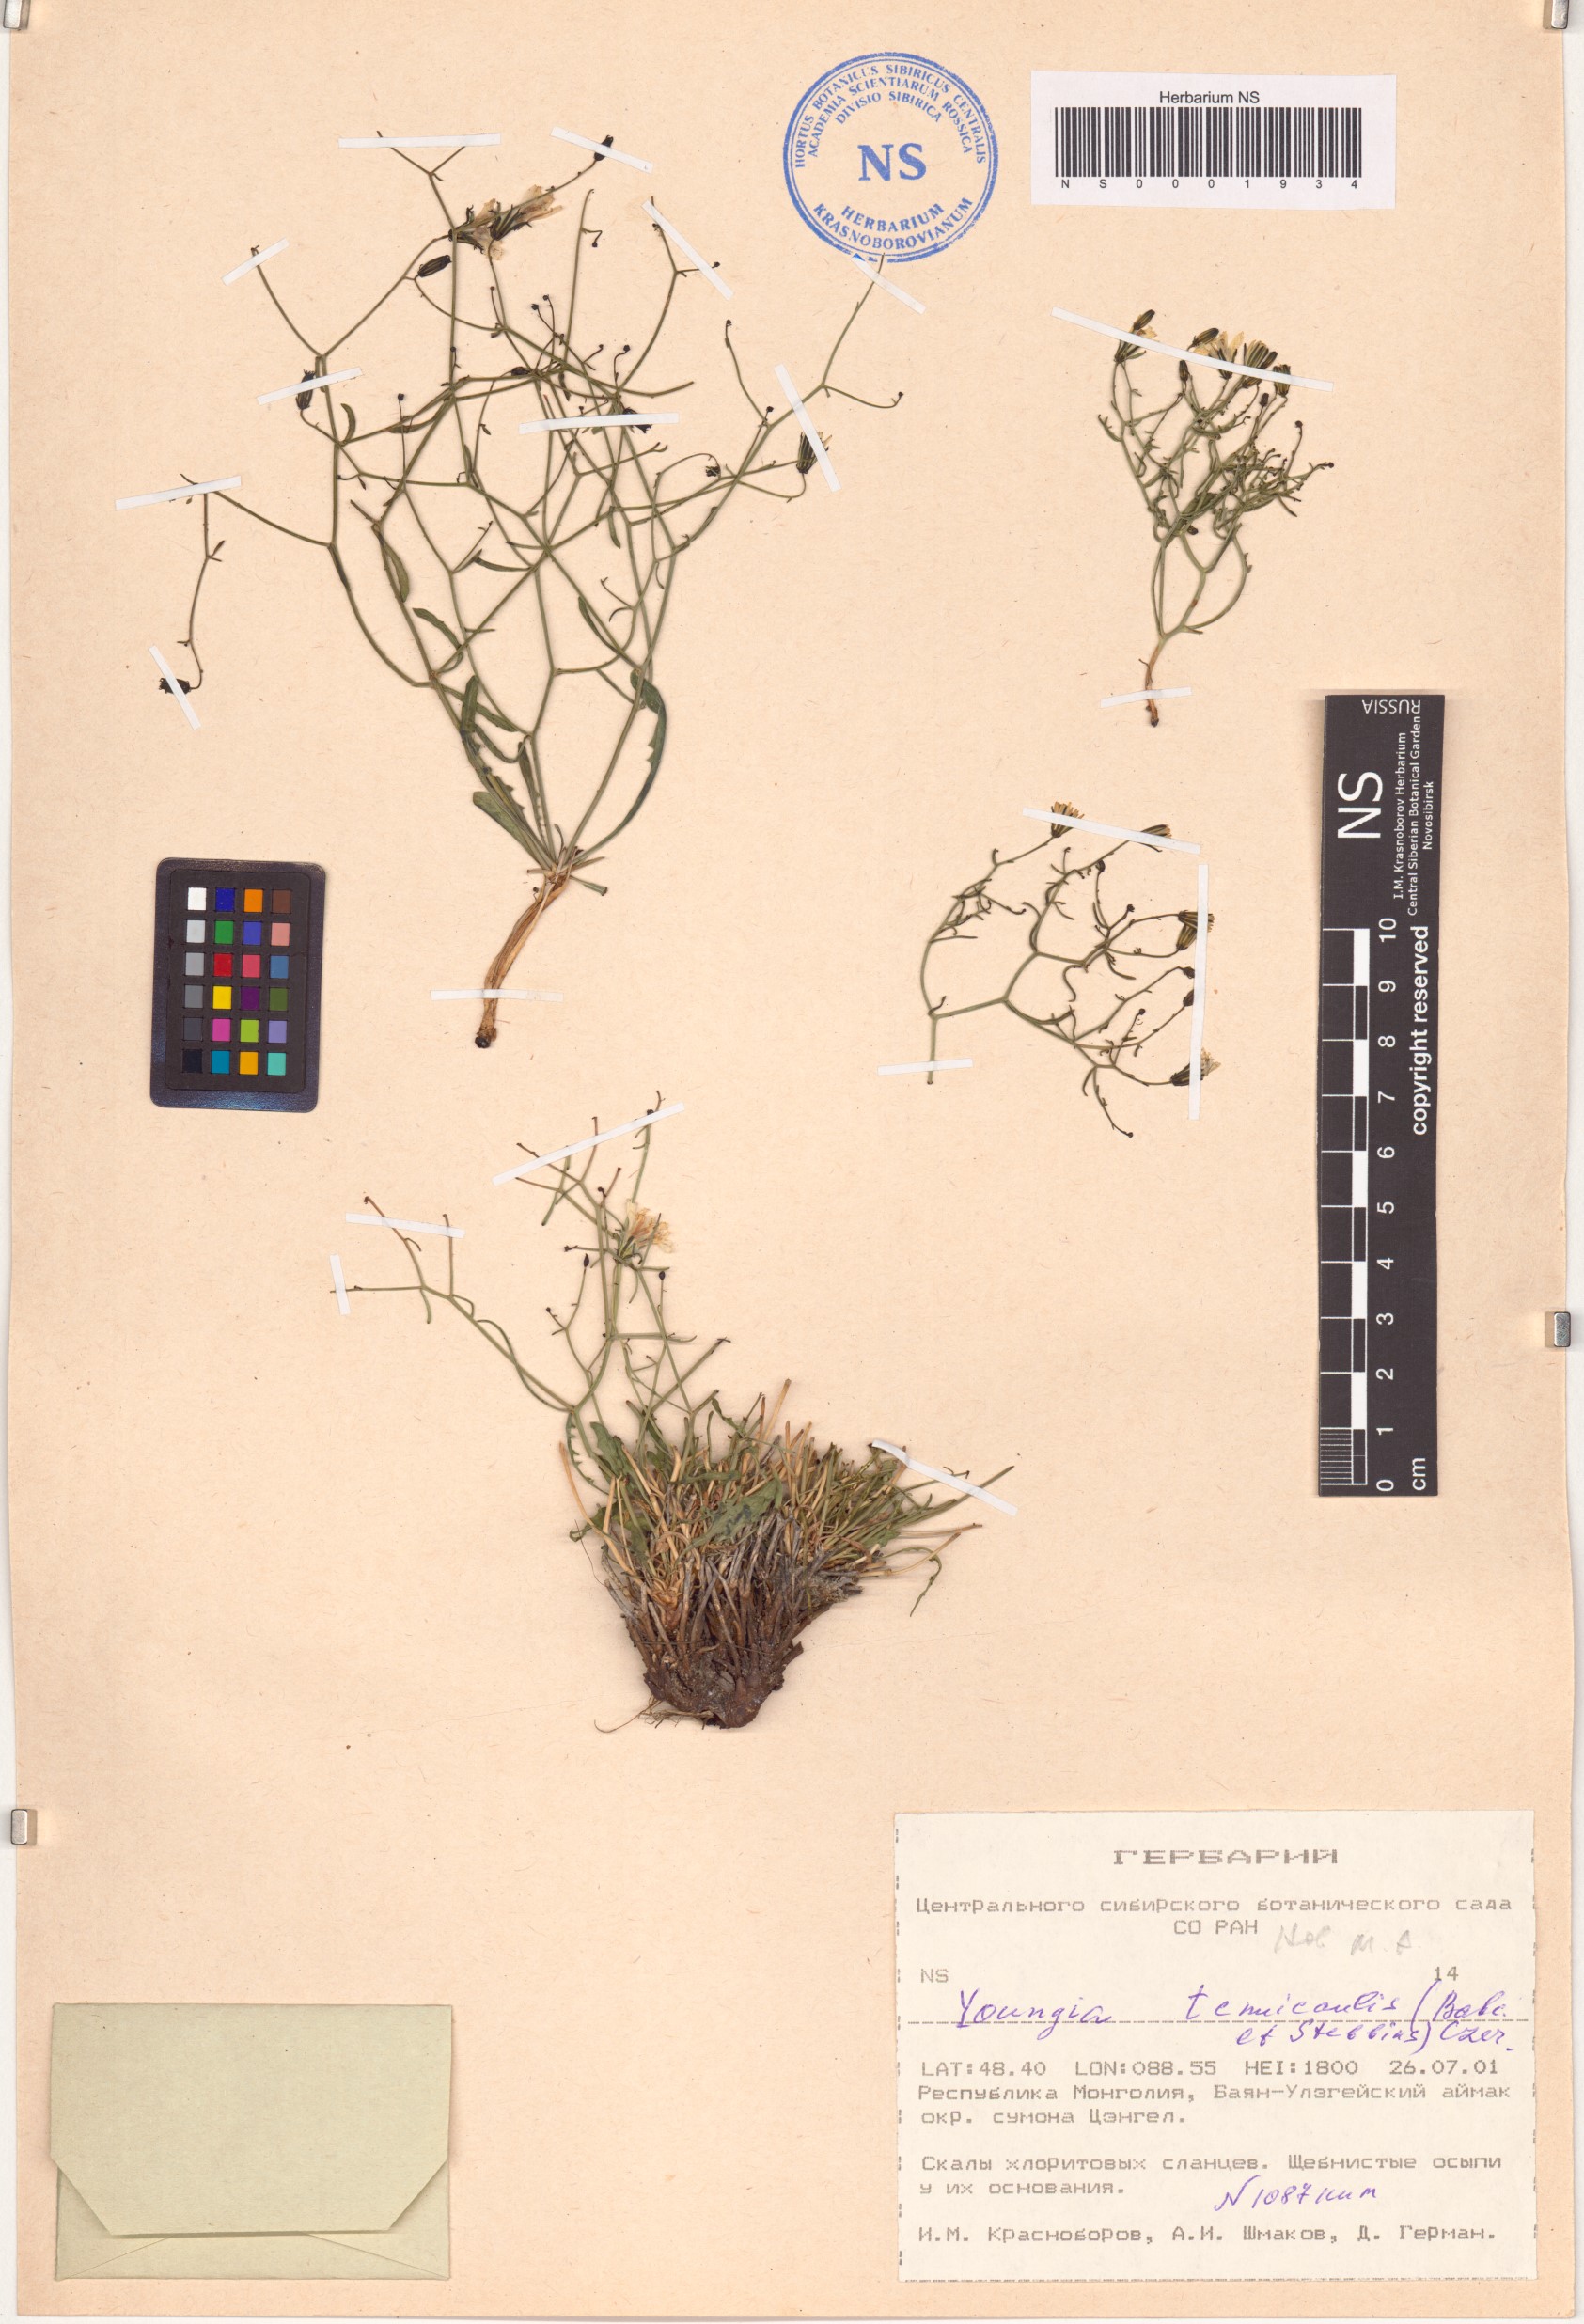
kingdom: Plantae
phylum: Tracheophyta
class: Magnoliopsida
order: Asterales
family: Asteraceae
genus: Crepidiastrum
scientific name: Crepidiastrum akagii
